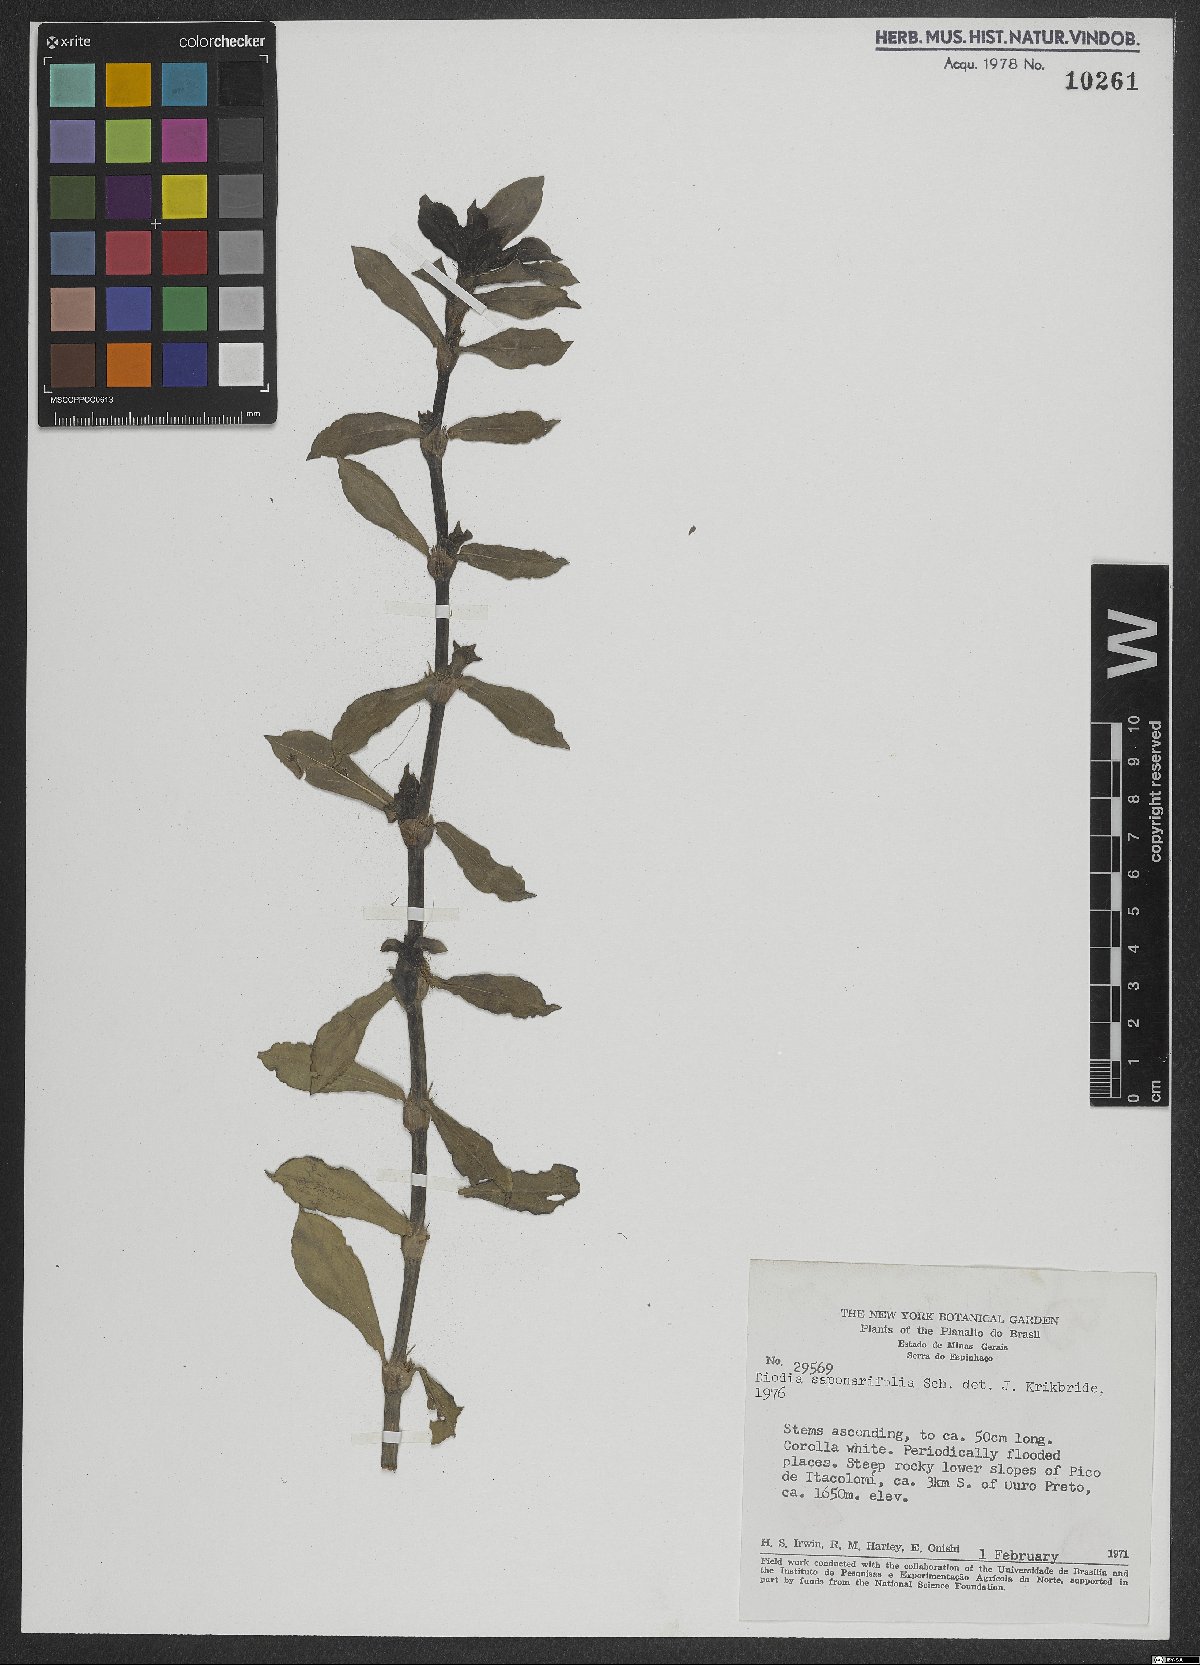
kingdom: Plantae
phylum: Tracheophyta
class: Magnoliopsida
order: Gentianales
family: Rubiaceae
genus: Diodia
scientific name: Diodia saponariifolia
